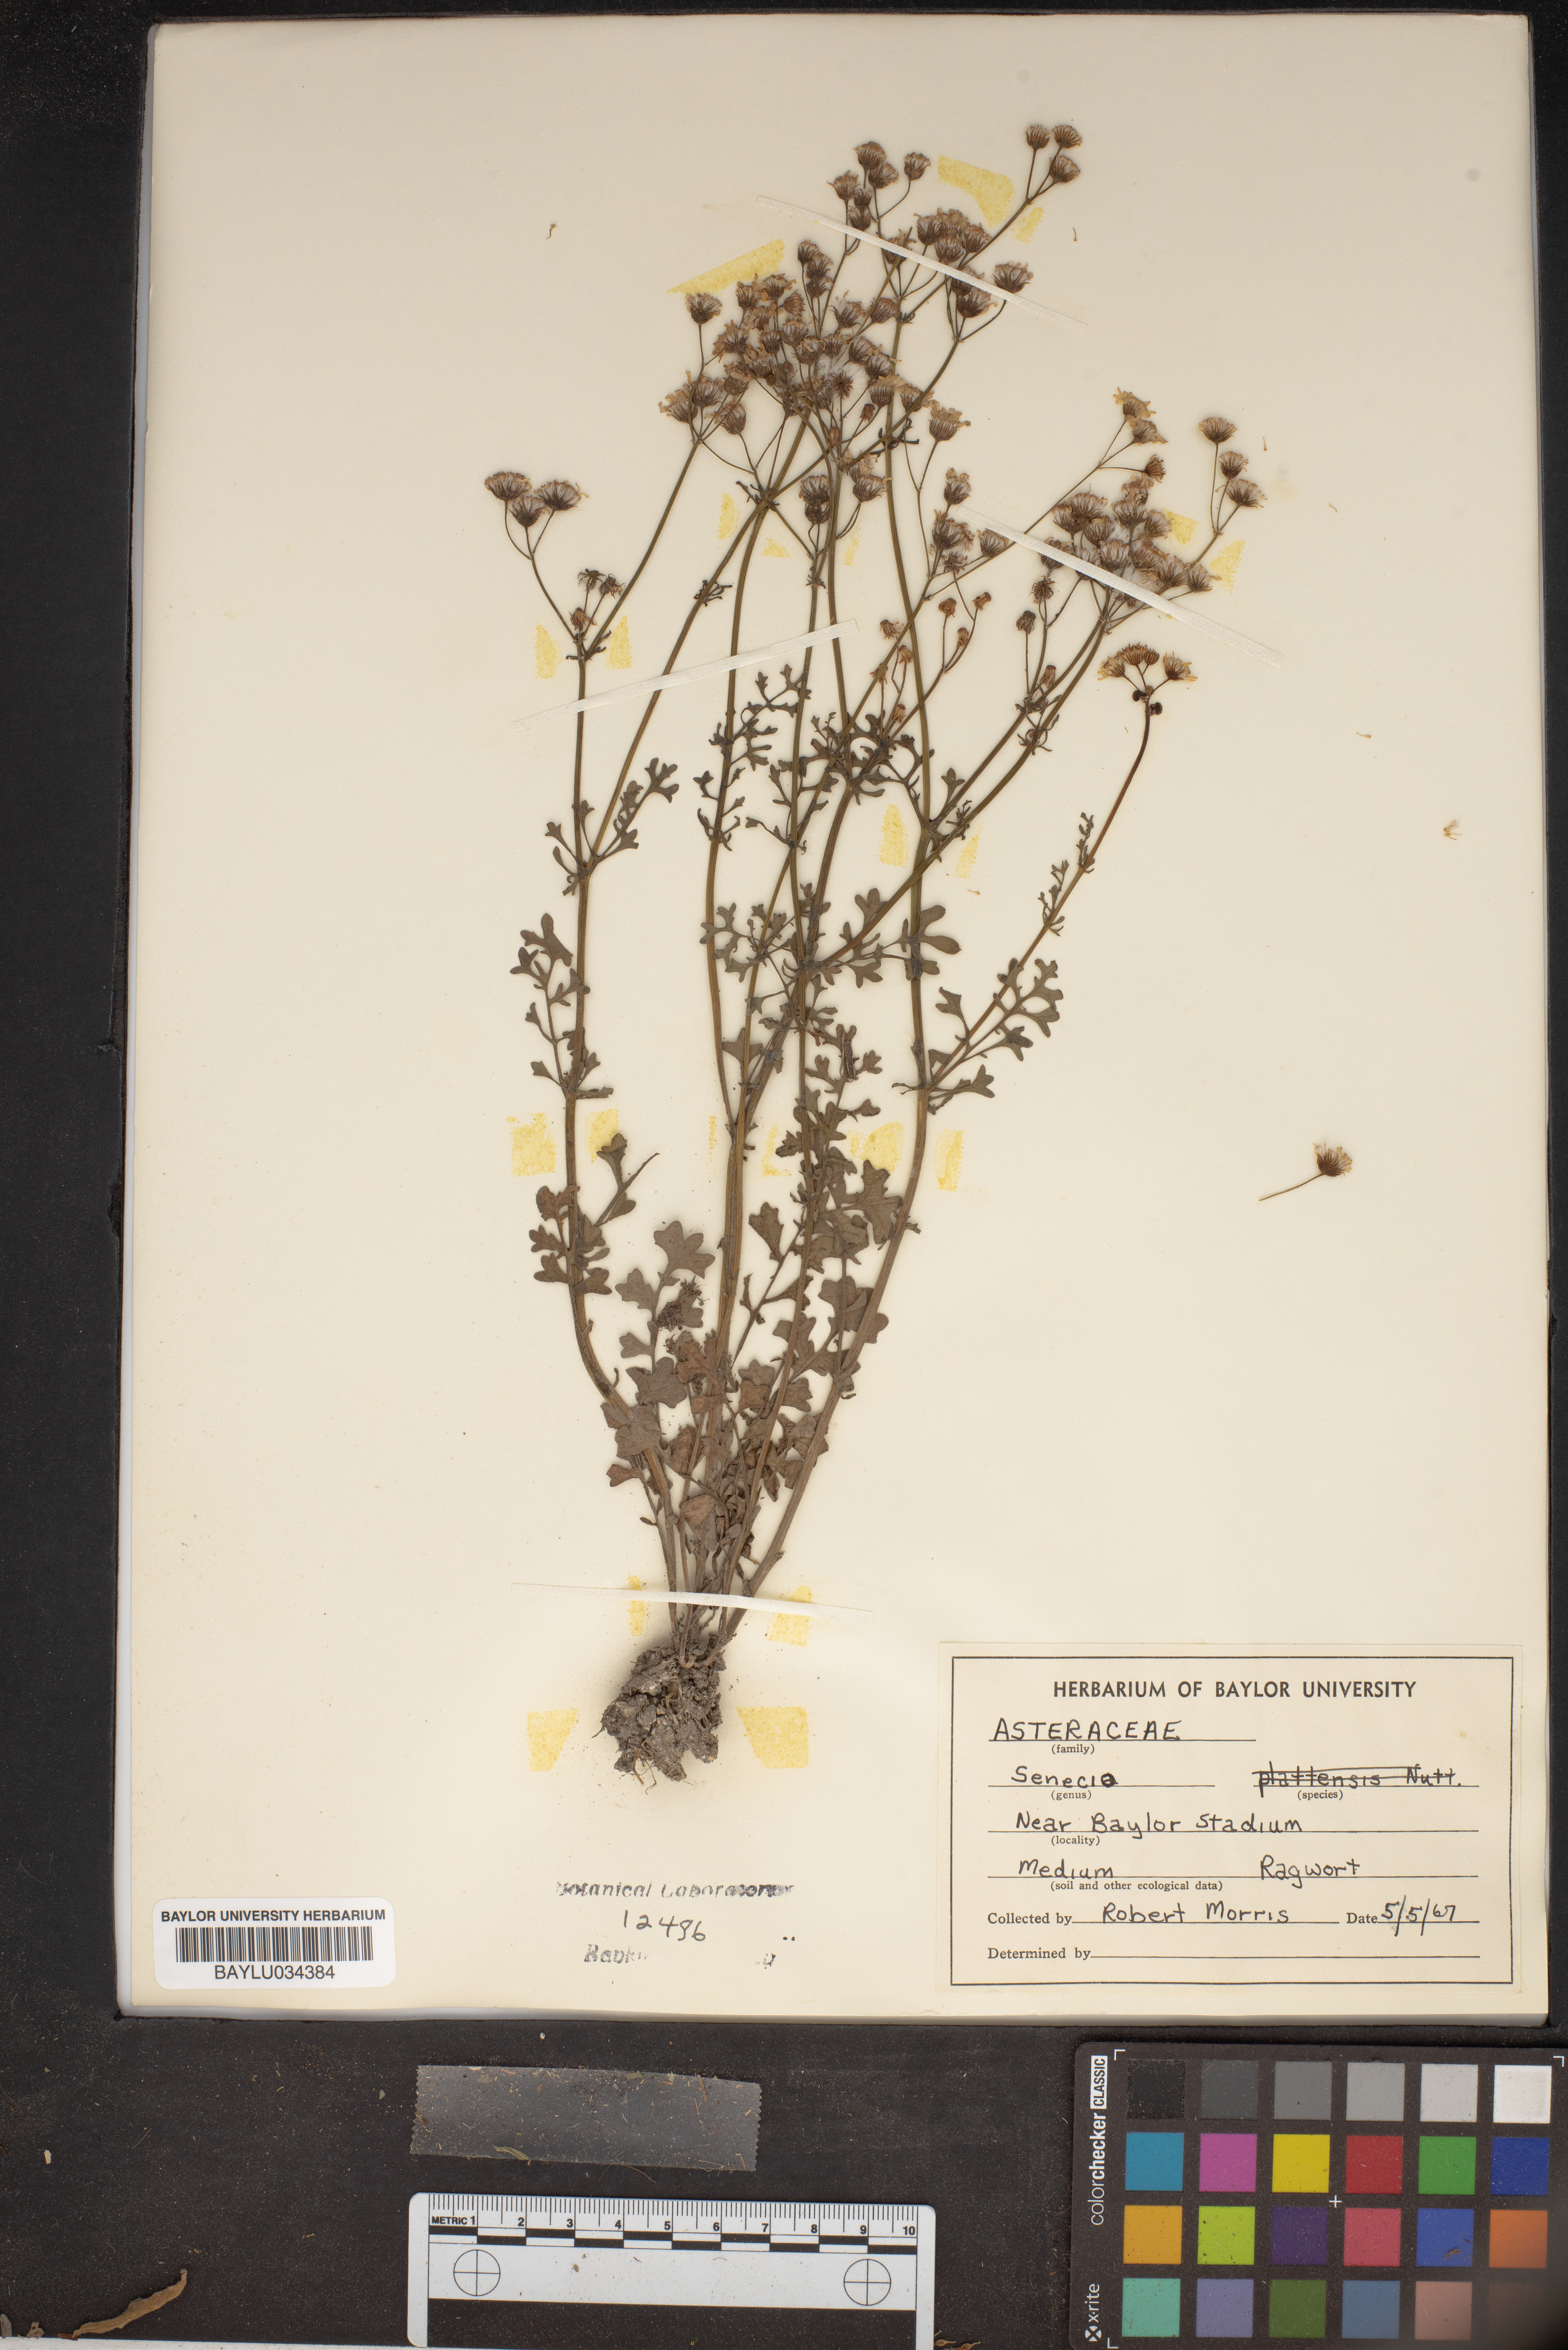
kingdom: Plantae
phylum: Tracheophyta
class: Magnoliopsida
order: Asterales
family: Asteraceae
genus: Senecio
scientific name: Senecio
